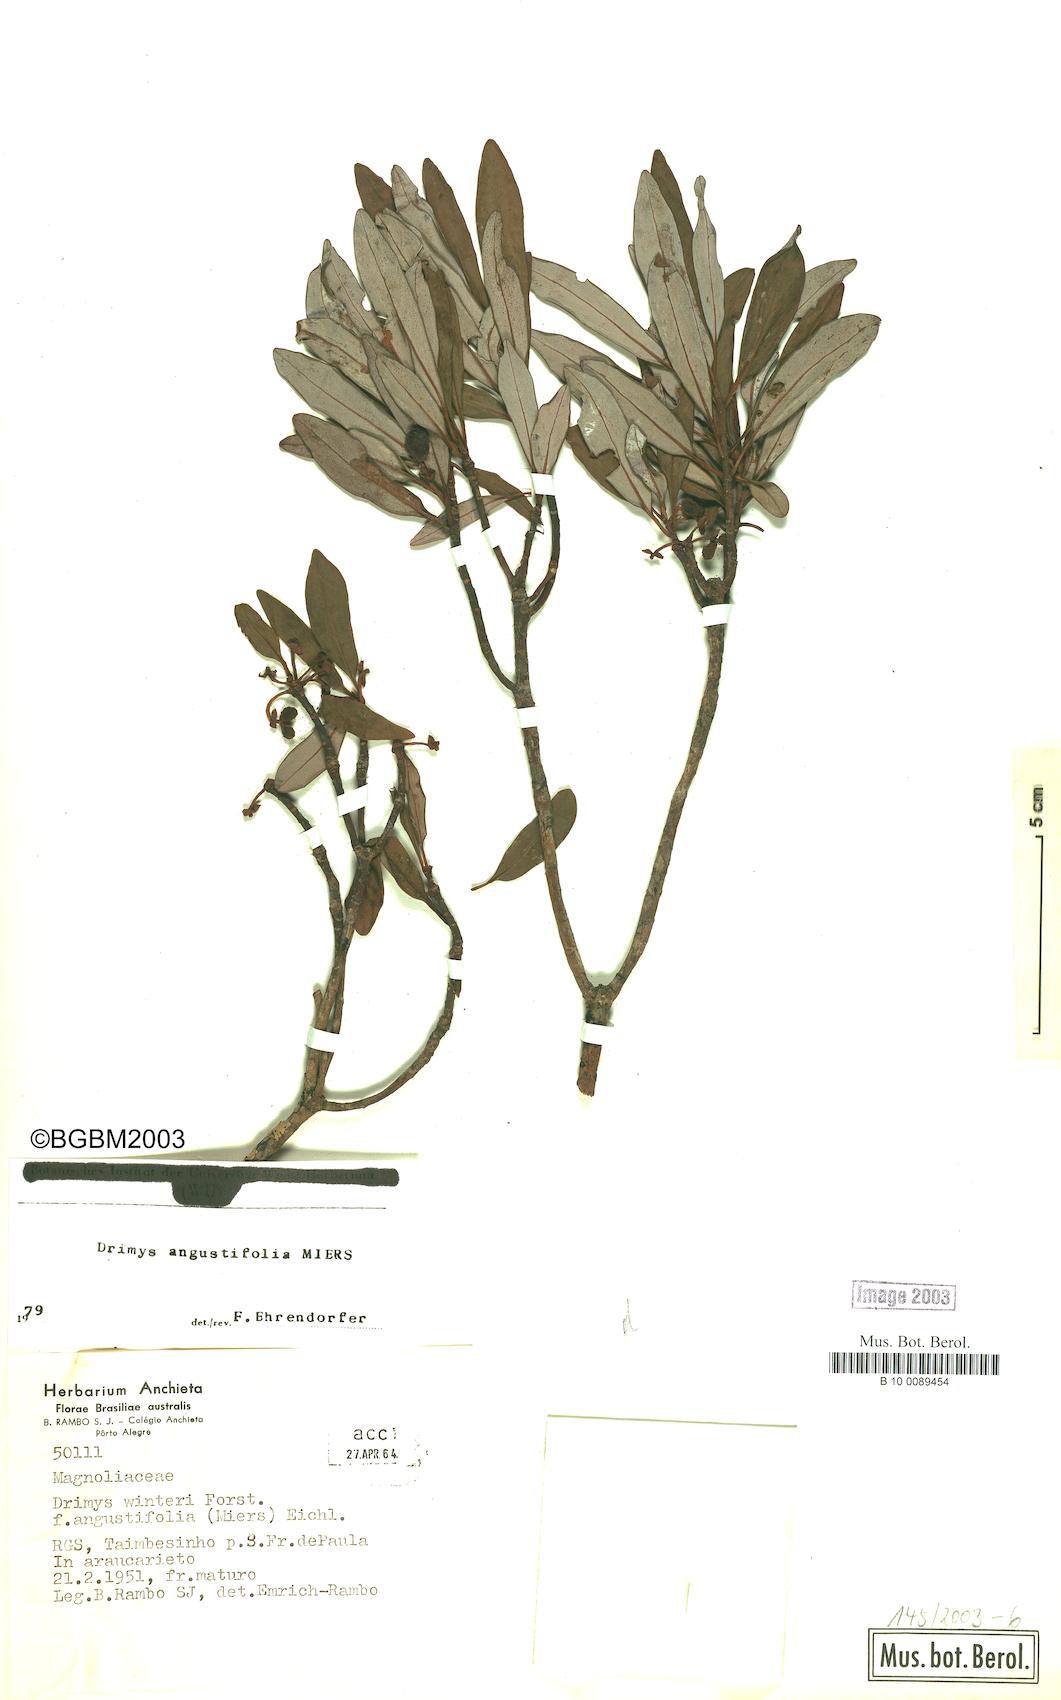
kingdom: Plantae
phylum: Tracheophyta
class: Magnoliopsida
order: Canellales
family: Winteraceae
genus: Drimys
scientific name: Drimys angustifolia
